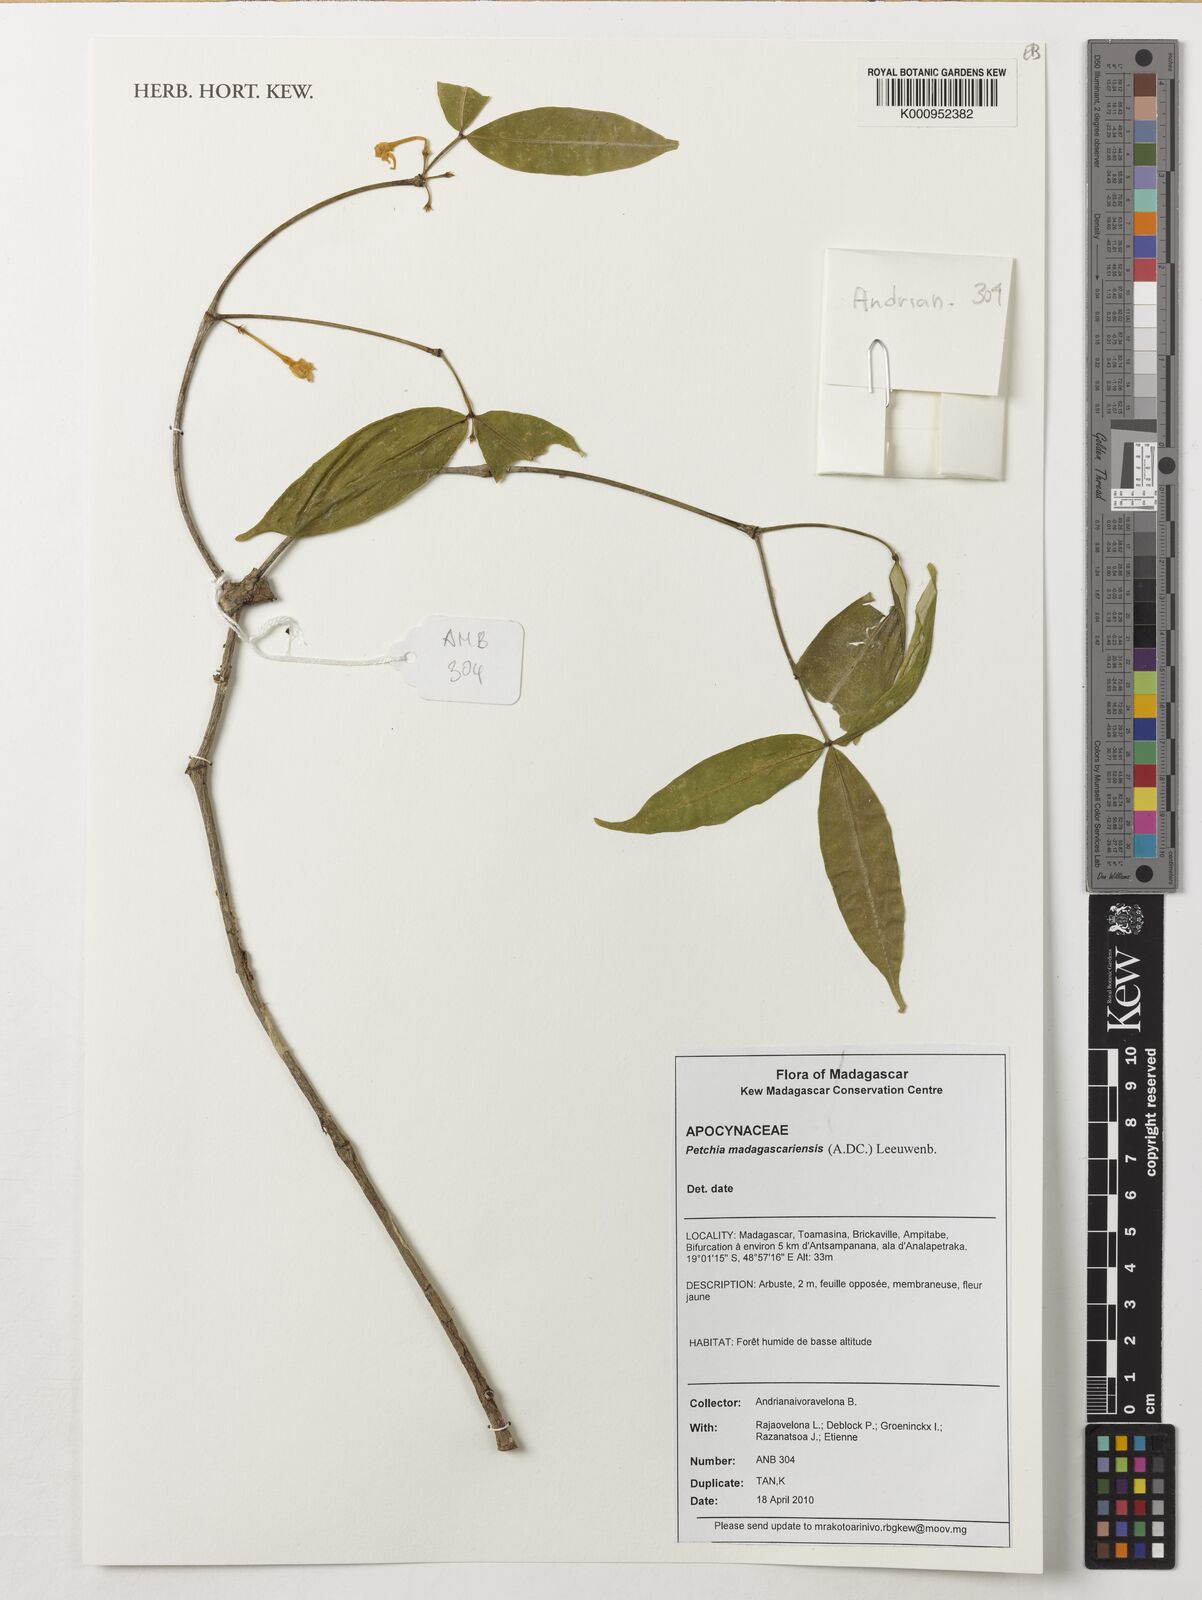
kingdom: Plantae
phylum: Tracheophyta
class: Magnoliopsida
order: Gentianales
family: Apocynaceae
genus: Petchia
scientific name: Petchia madagascariensis
